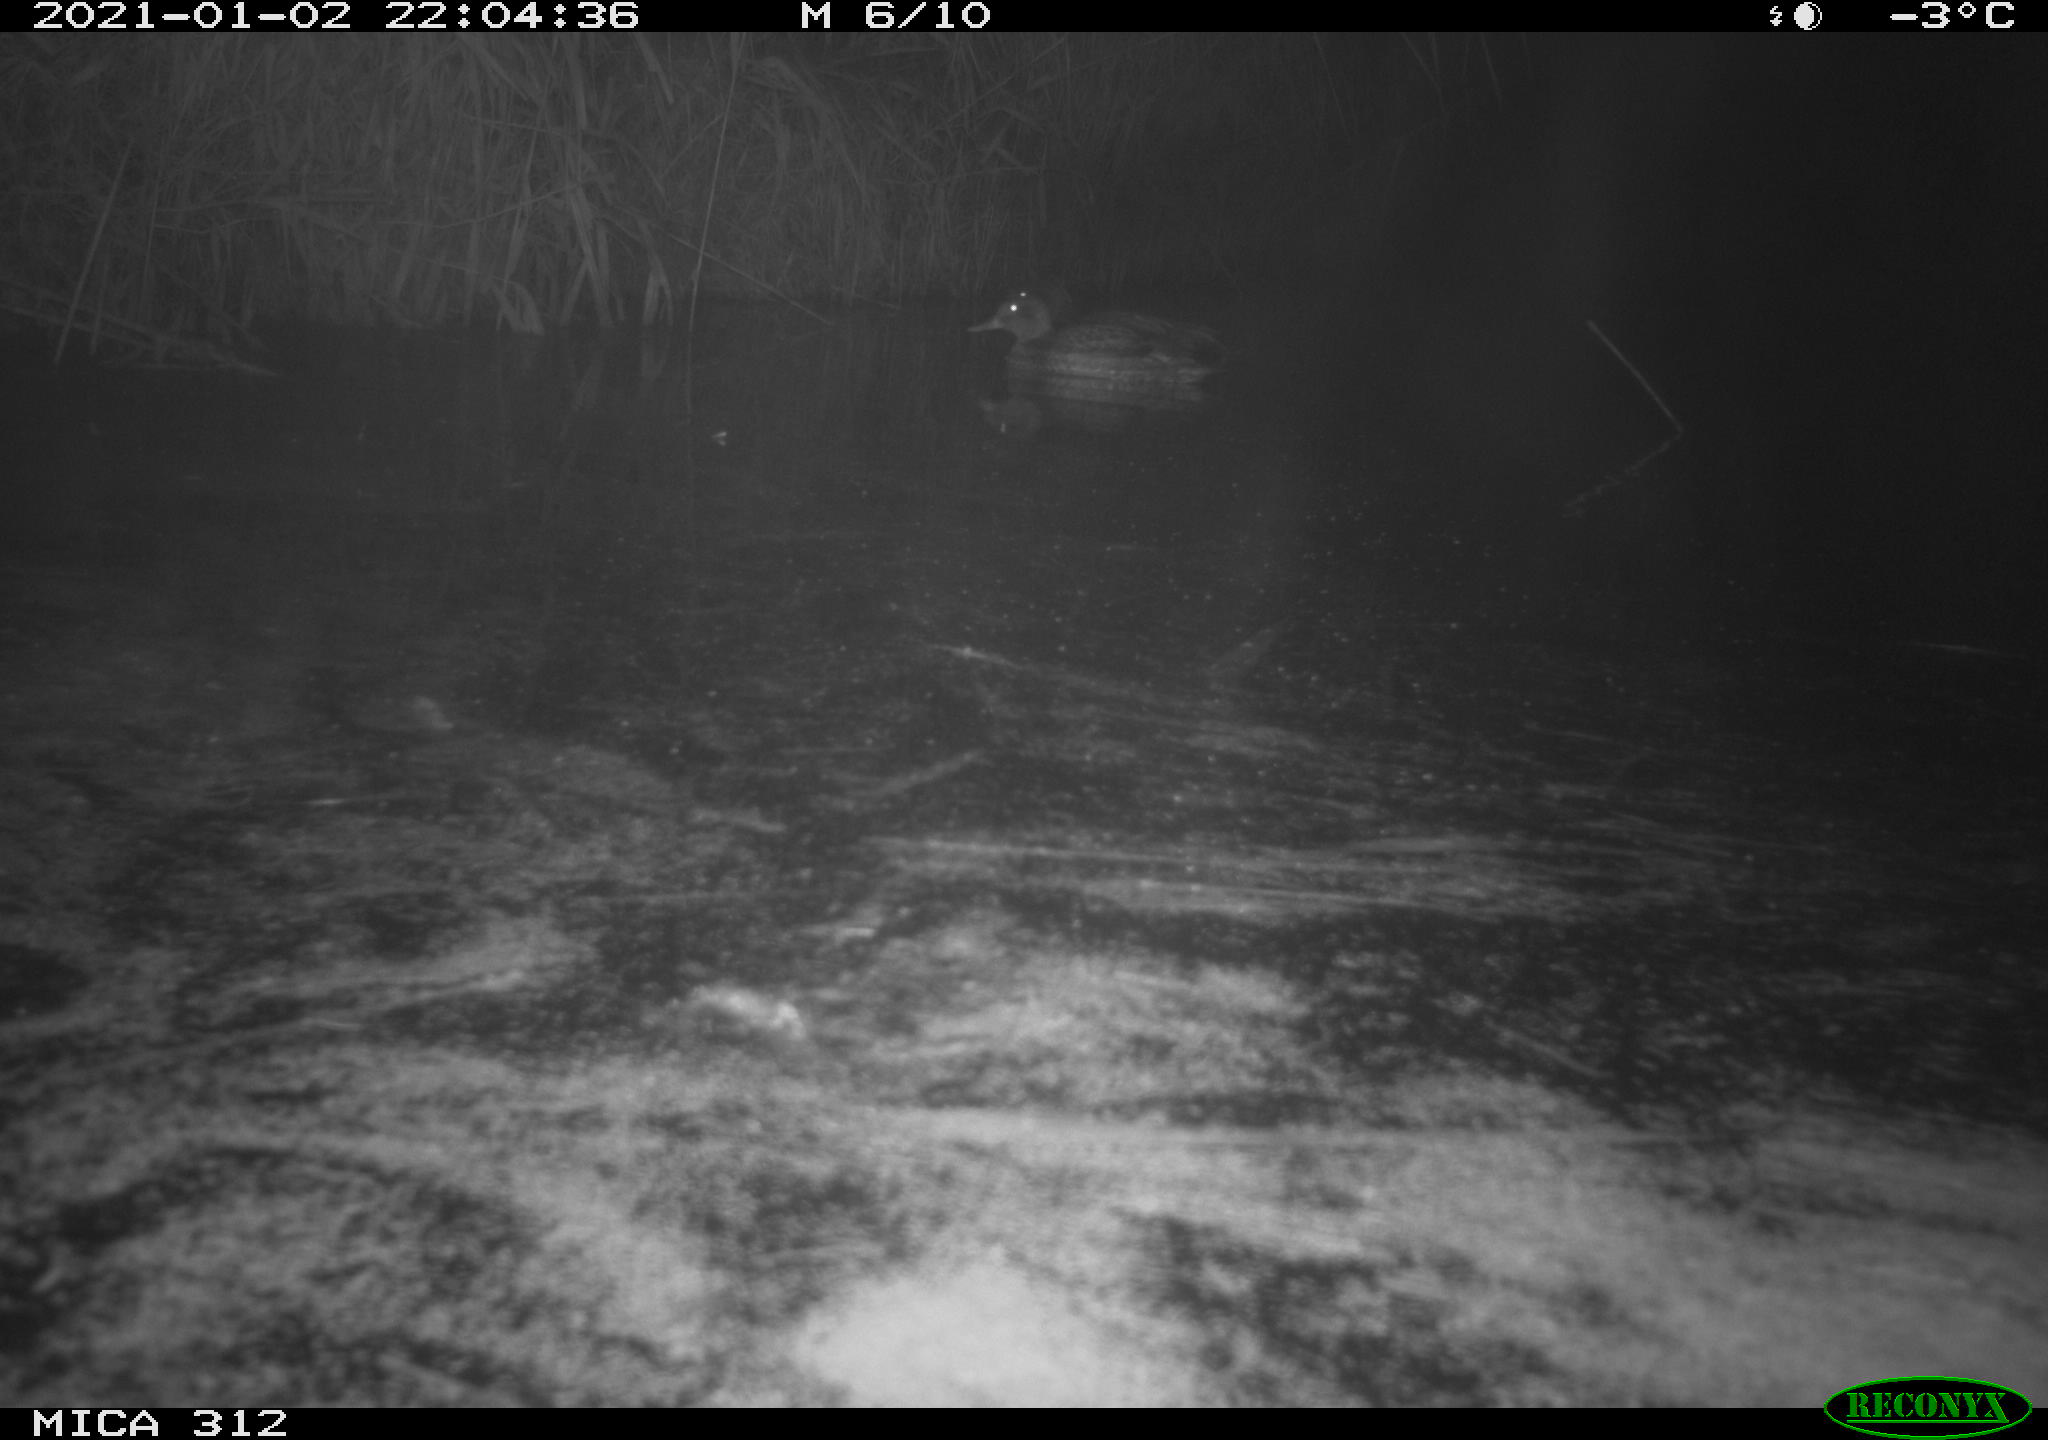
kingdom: Animalia
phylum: Chordata
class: Mammalia
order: Rodentia
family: Muridae
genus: Rattus
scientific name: Rattus norvegicus
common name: Brown rat
